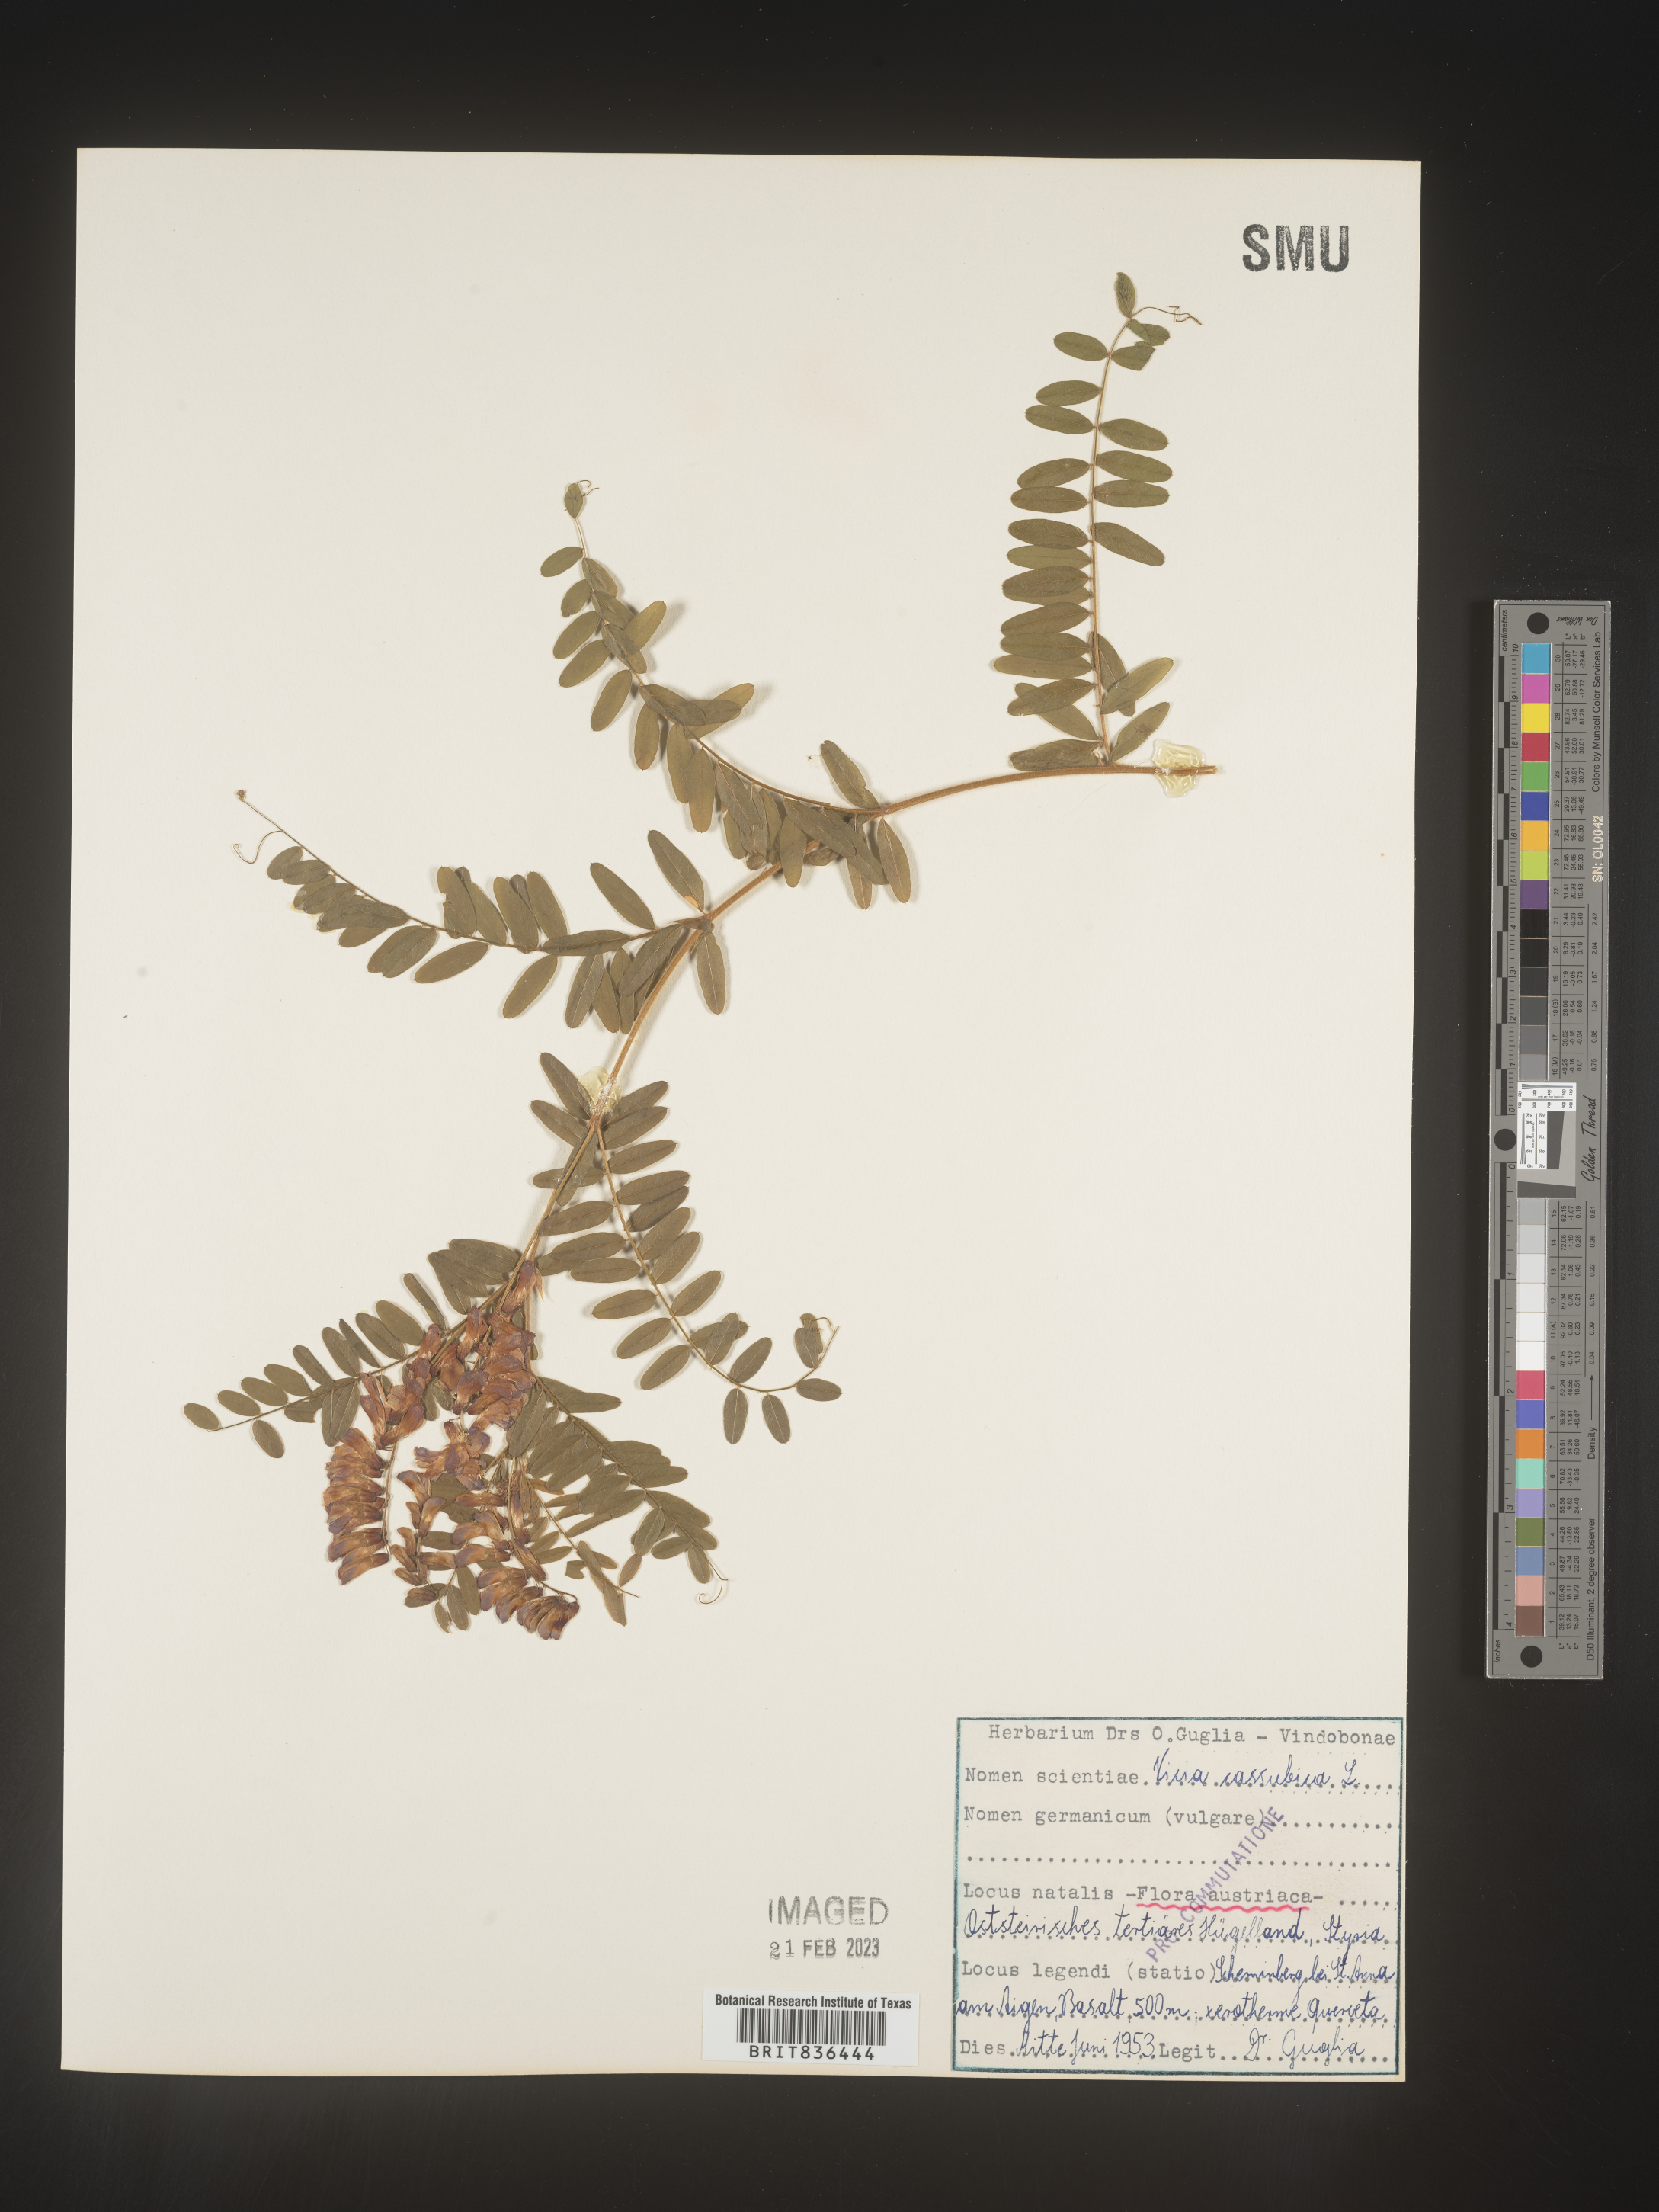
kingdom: Plantae
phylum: Tracheophyta
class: Magnoliopsida
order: Fabales
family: Fabaceae
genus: Vicia
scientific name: Vicia
